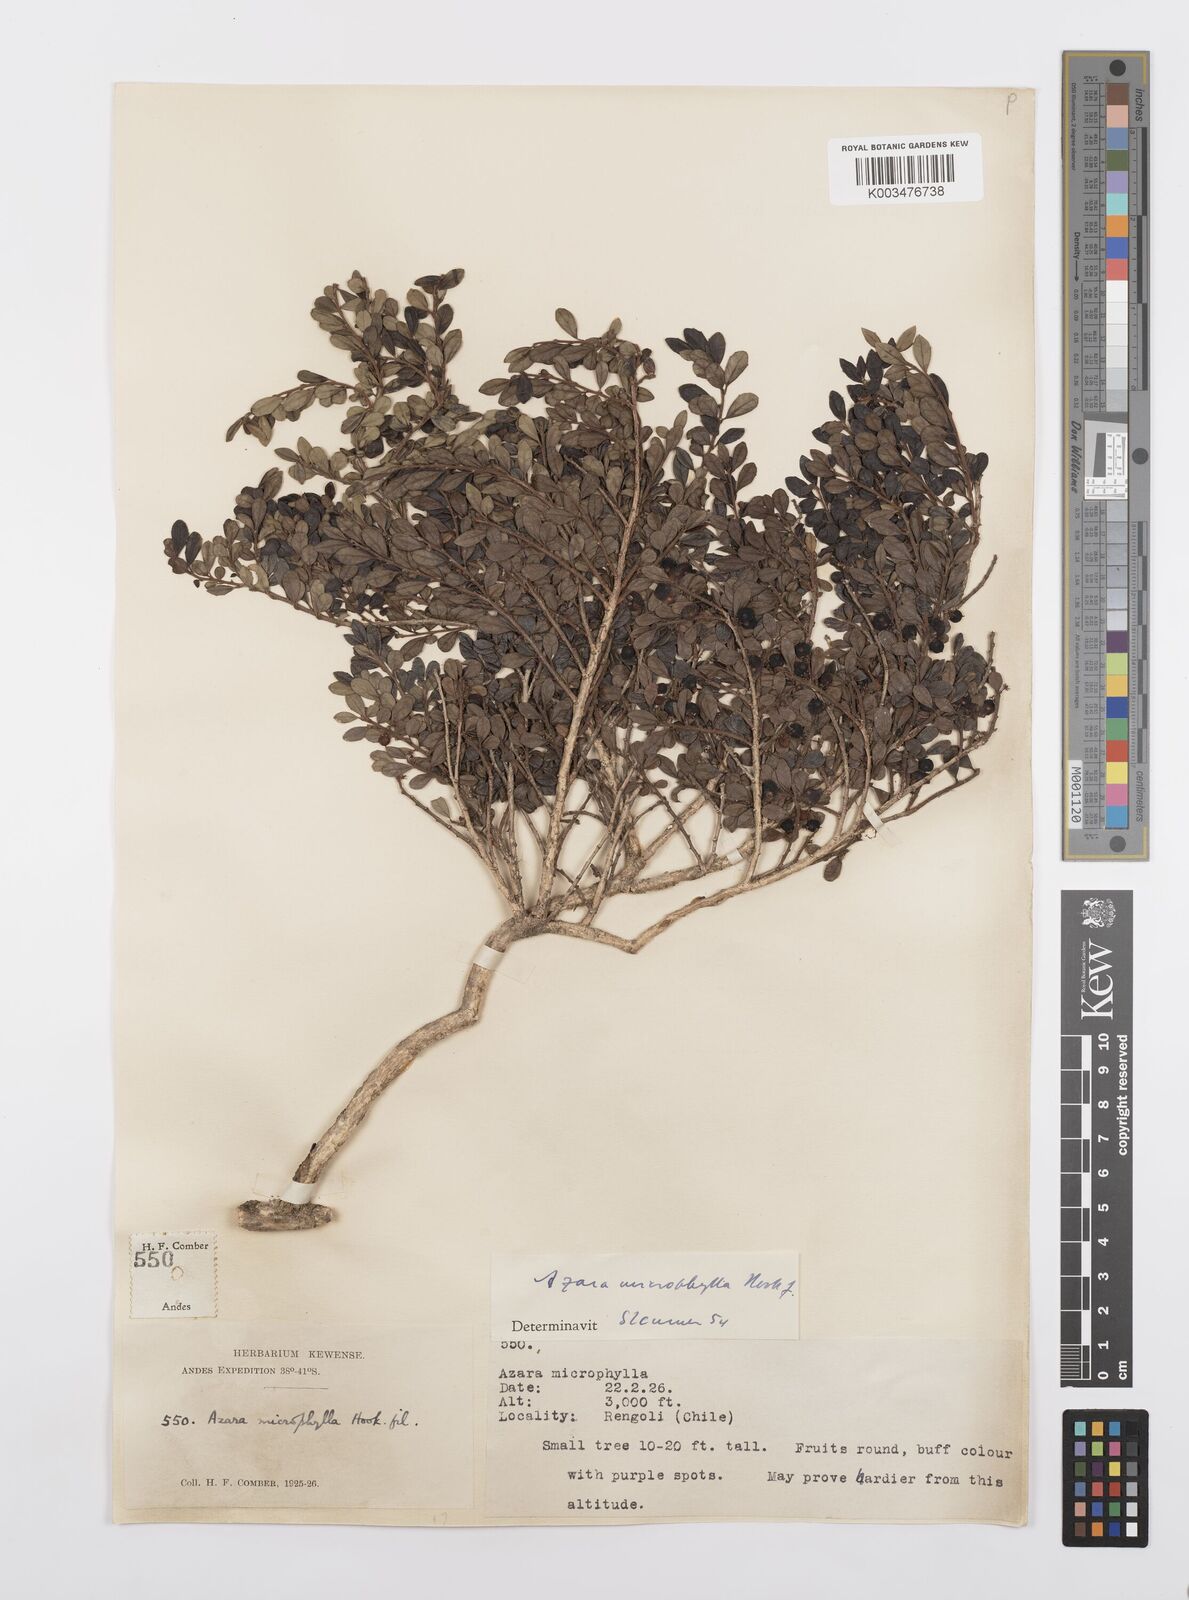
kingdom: Plantae
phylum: Tracheophyta
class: Magnoliopsida
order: Malpighiales
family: Salicaceae
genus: Azara
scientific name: Azara microphylla
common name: Box-leaf azara
